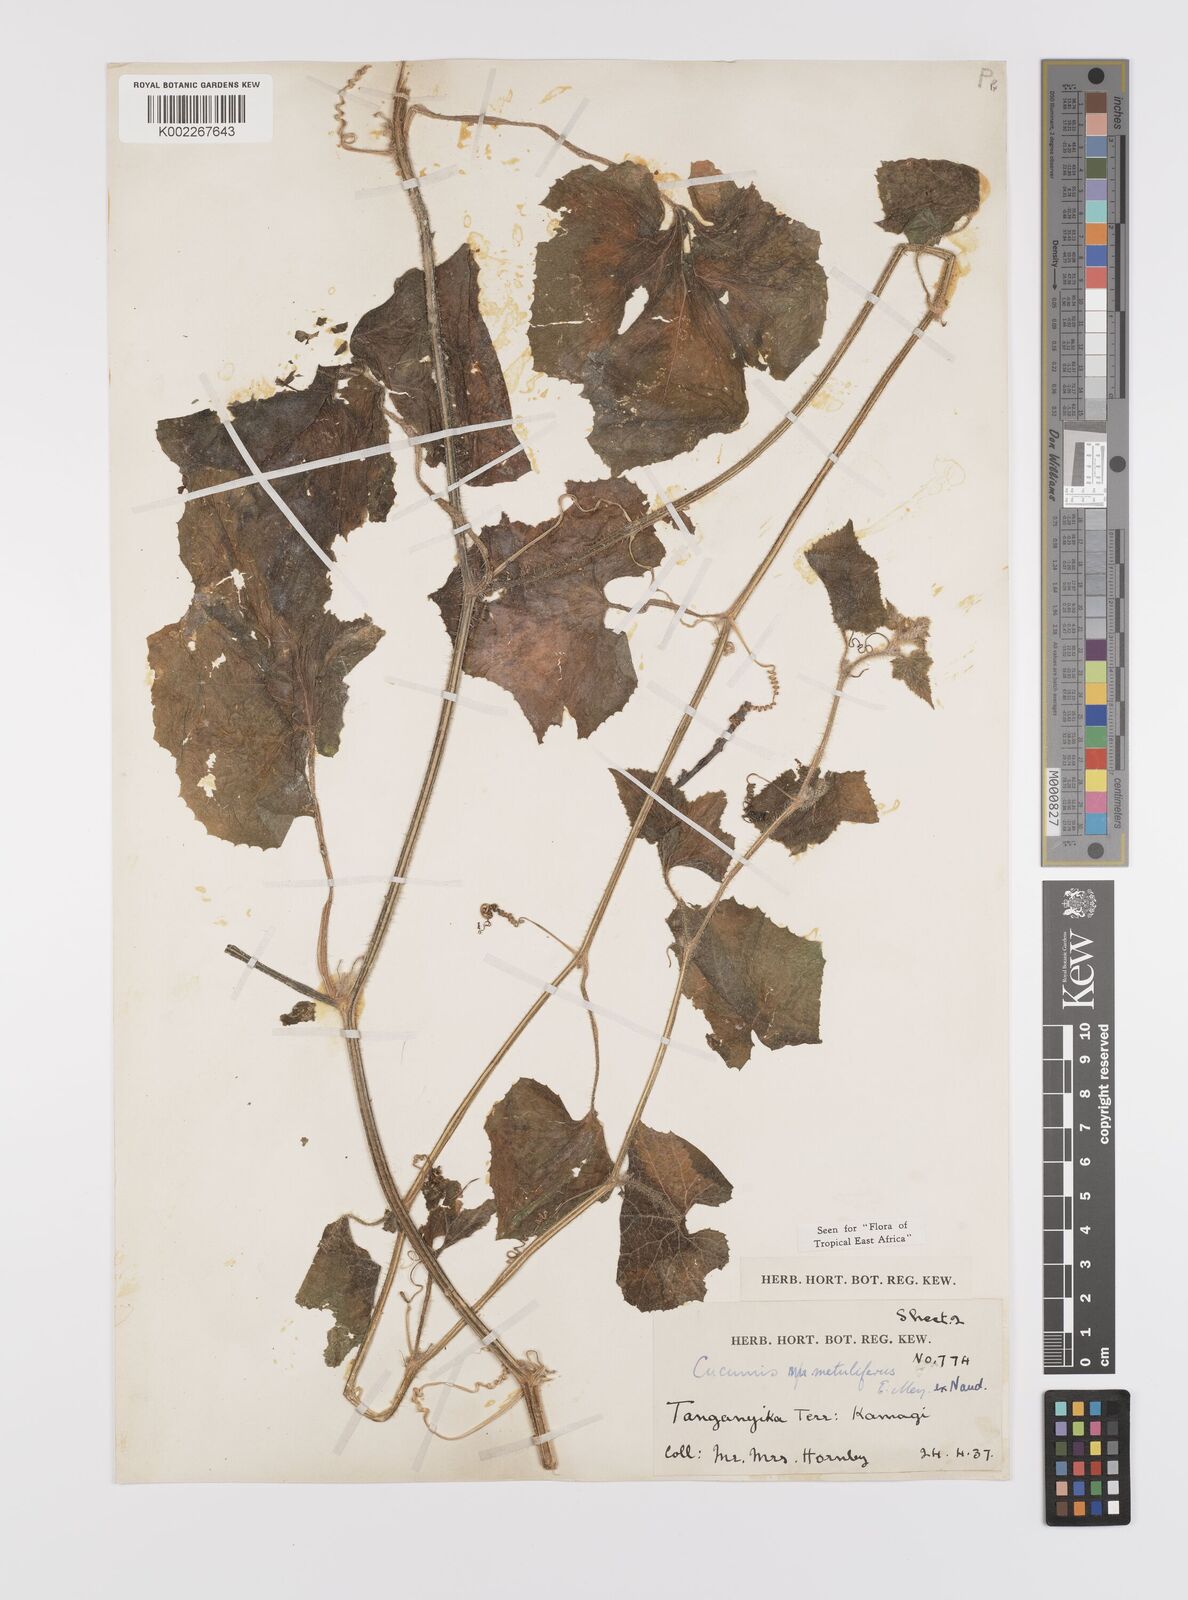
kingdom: Plantae
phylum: Tracheophyta
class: Magnoliopsida
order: Cucurbitales
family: Cucurbitaceae
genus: Cucumis
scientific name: Cucumis metuliferus
